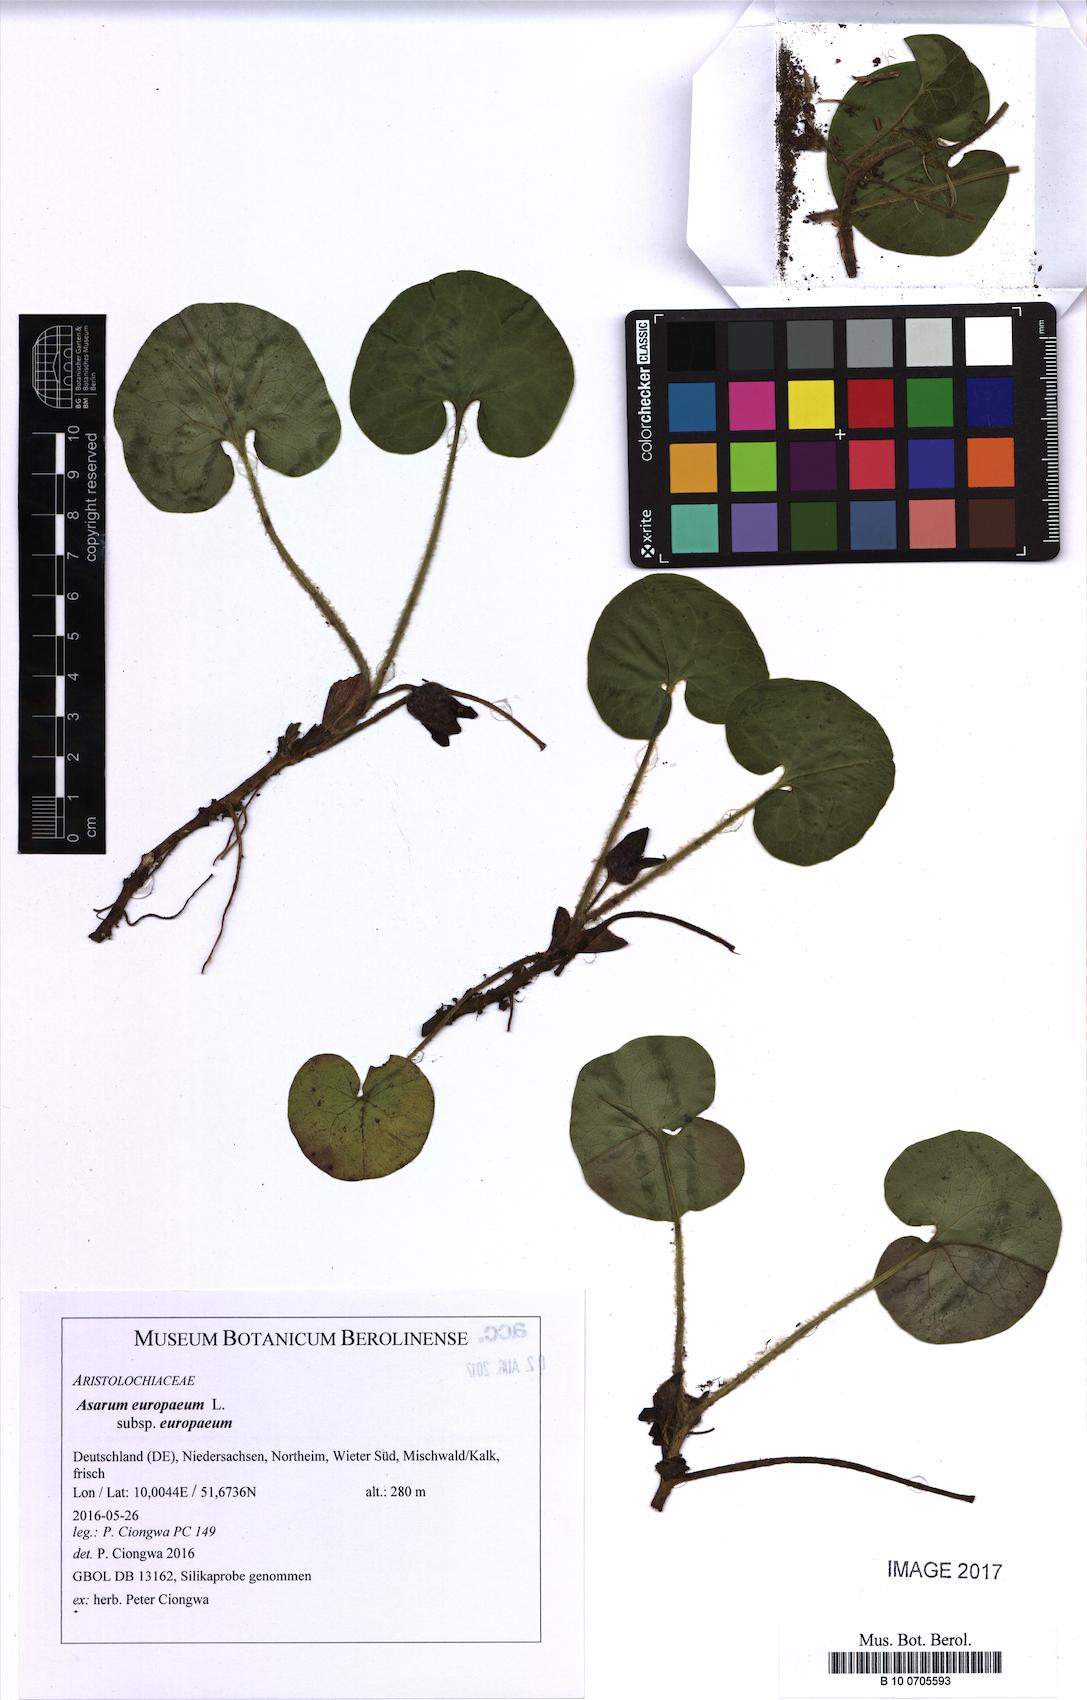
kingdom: Plantae
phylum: Tracheophyta
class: Magnoliopsida
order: Piperales
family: Aristolochiaceae
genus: Asarum
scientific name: Asarum europaeum
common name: Asarabacca
